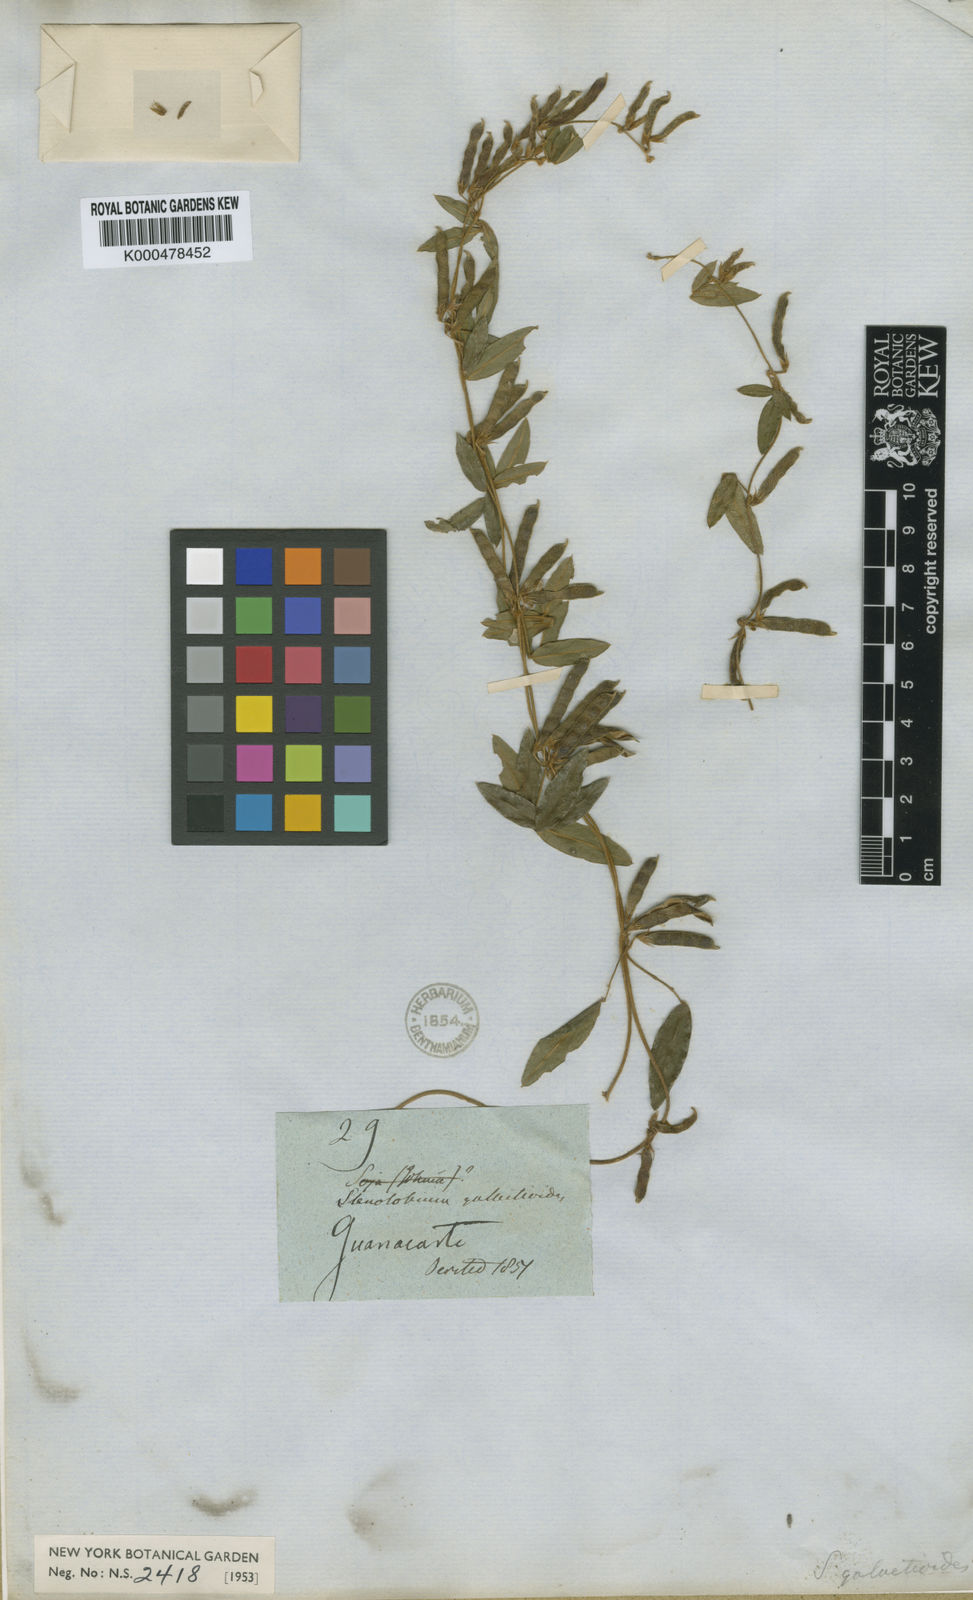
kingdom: Plantae
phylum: Tracheophyta
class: Magnoliopsida
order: Fabales
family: Fabaceae
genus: Calopogonium
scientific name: Calopogonium
